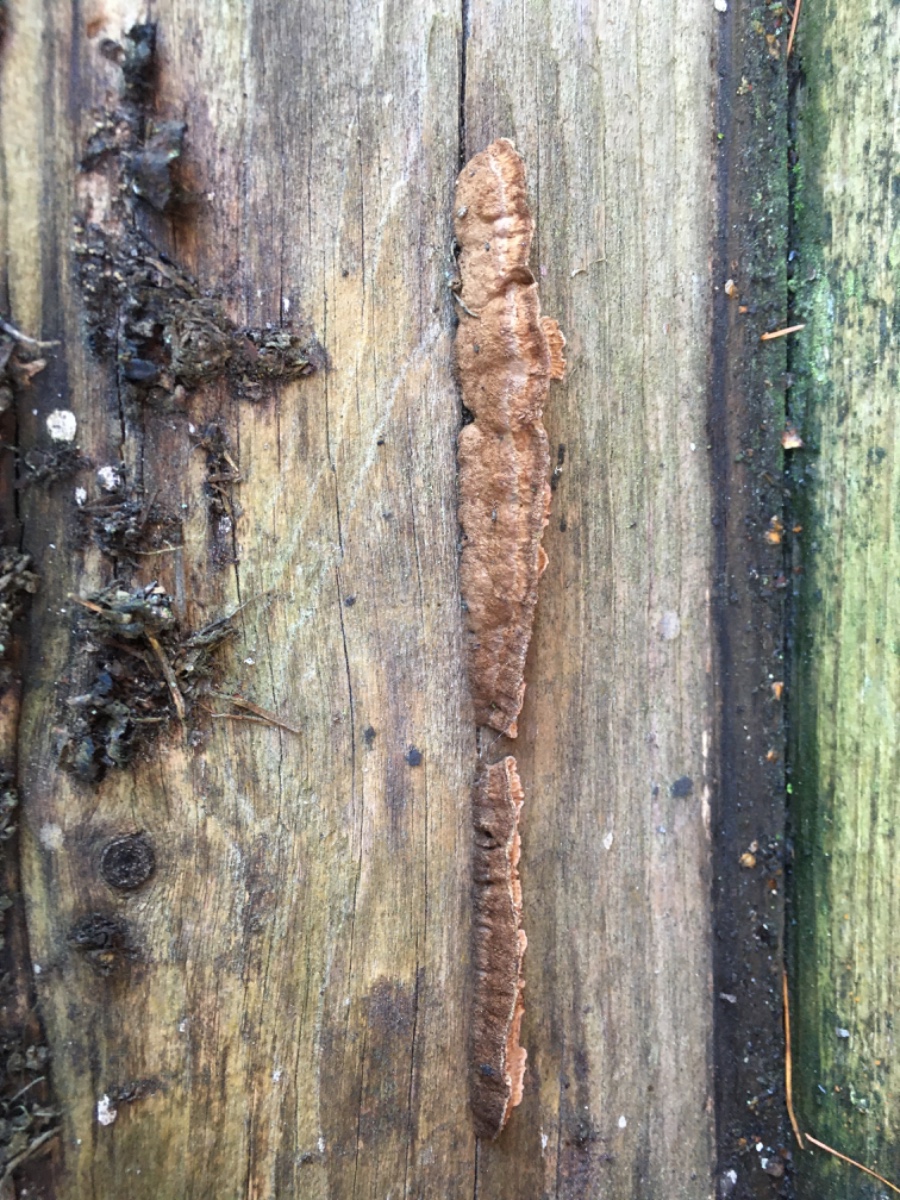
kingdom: Fungi
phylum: Basidiomycota
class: Agaricomycetes
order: Gloeophyllales
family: Gloeophyllaceae
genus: Gloeophyllum
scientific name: Gloeophyllum sepiarium
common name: fyrre-korkhat
